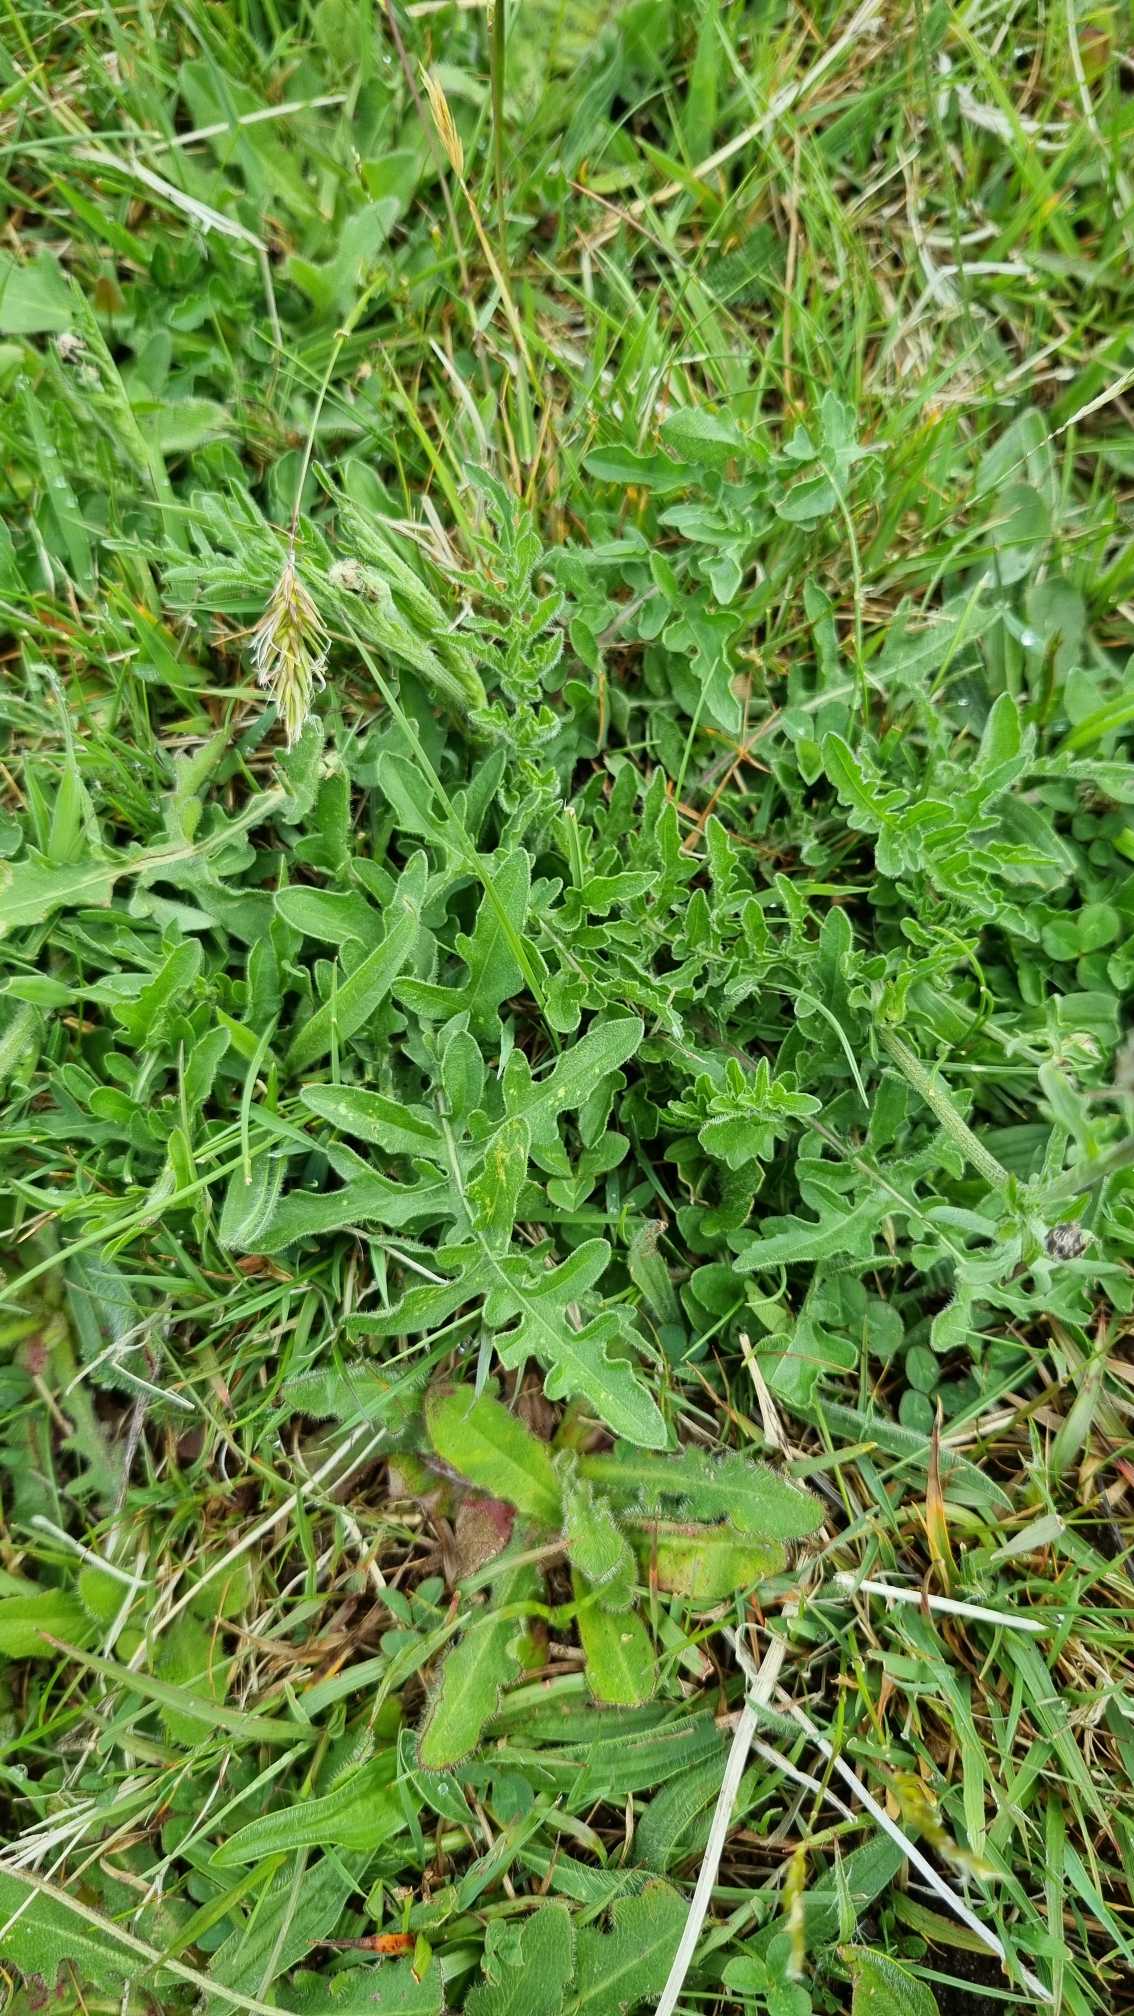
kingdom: Plantae
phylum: Tracheophyta
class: Magnoliopsida
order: Asterales
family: Asteraceae
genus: Centaurea
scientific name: Centaurea scabiosa
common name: Stor knopurt
